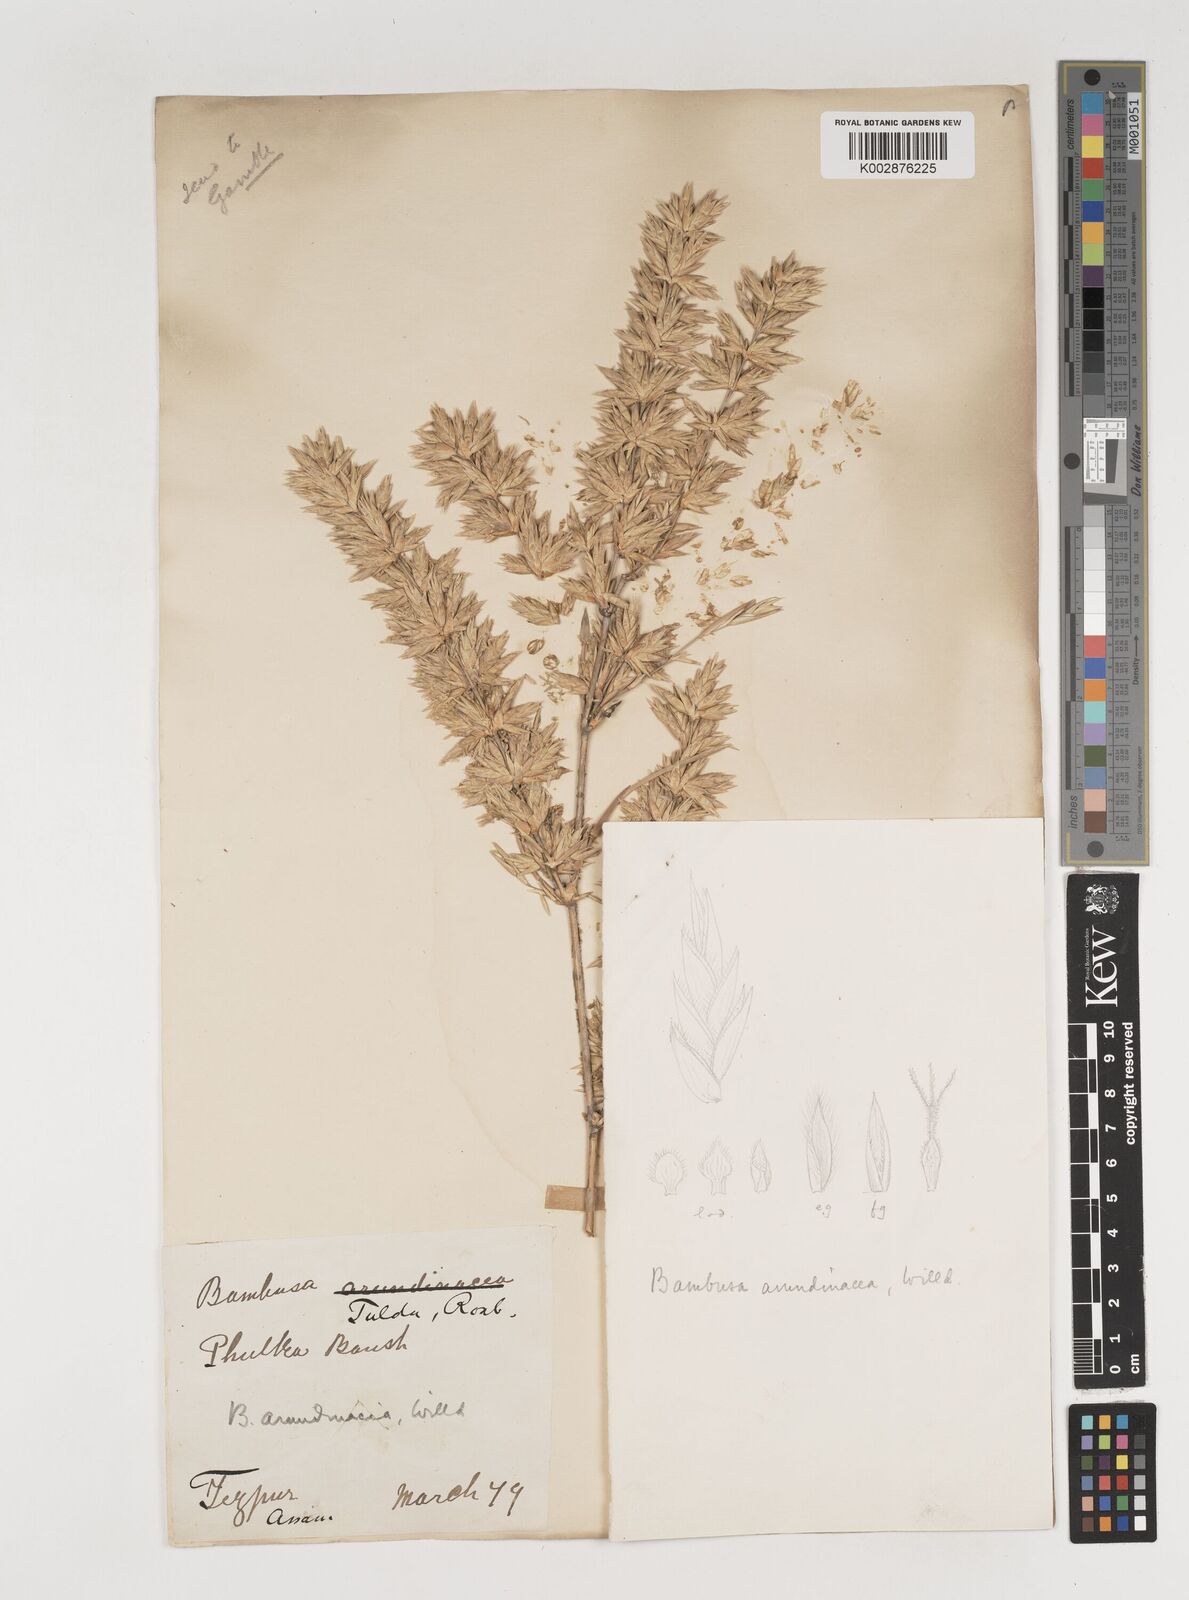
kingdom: Plantae
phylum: Tracheophyta
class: Liliopsida
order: Poales
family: Poaceae
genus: Bambusa
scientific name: Bambusa bambos
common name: Indian thorny bamboo
